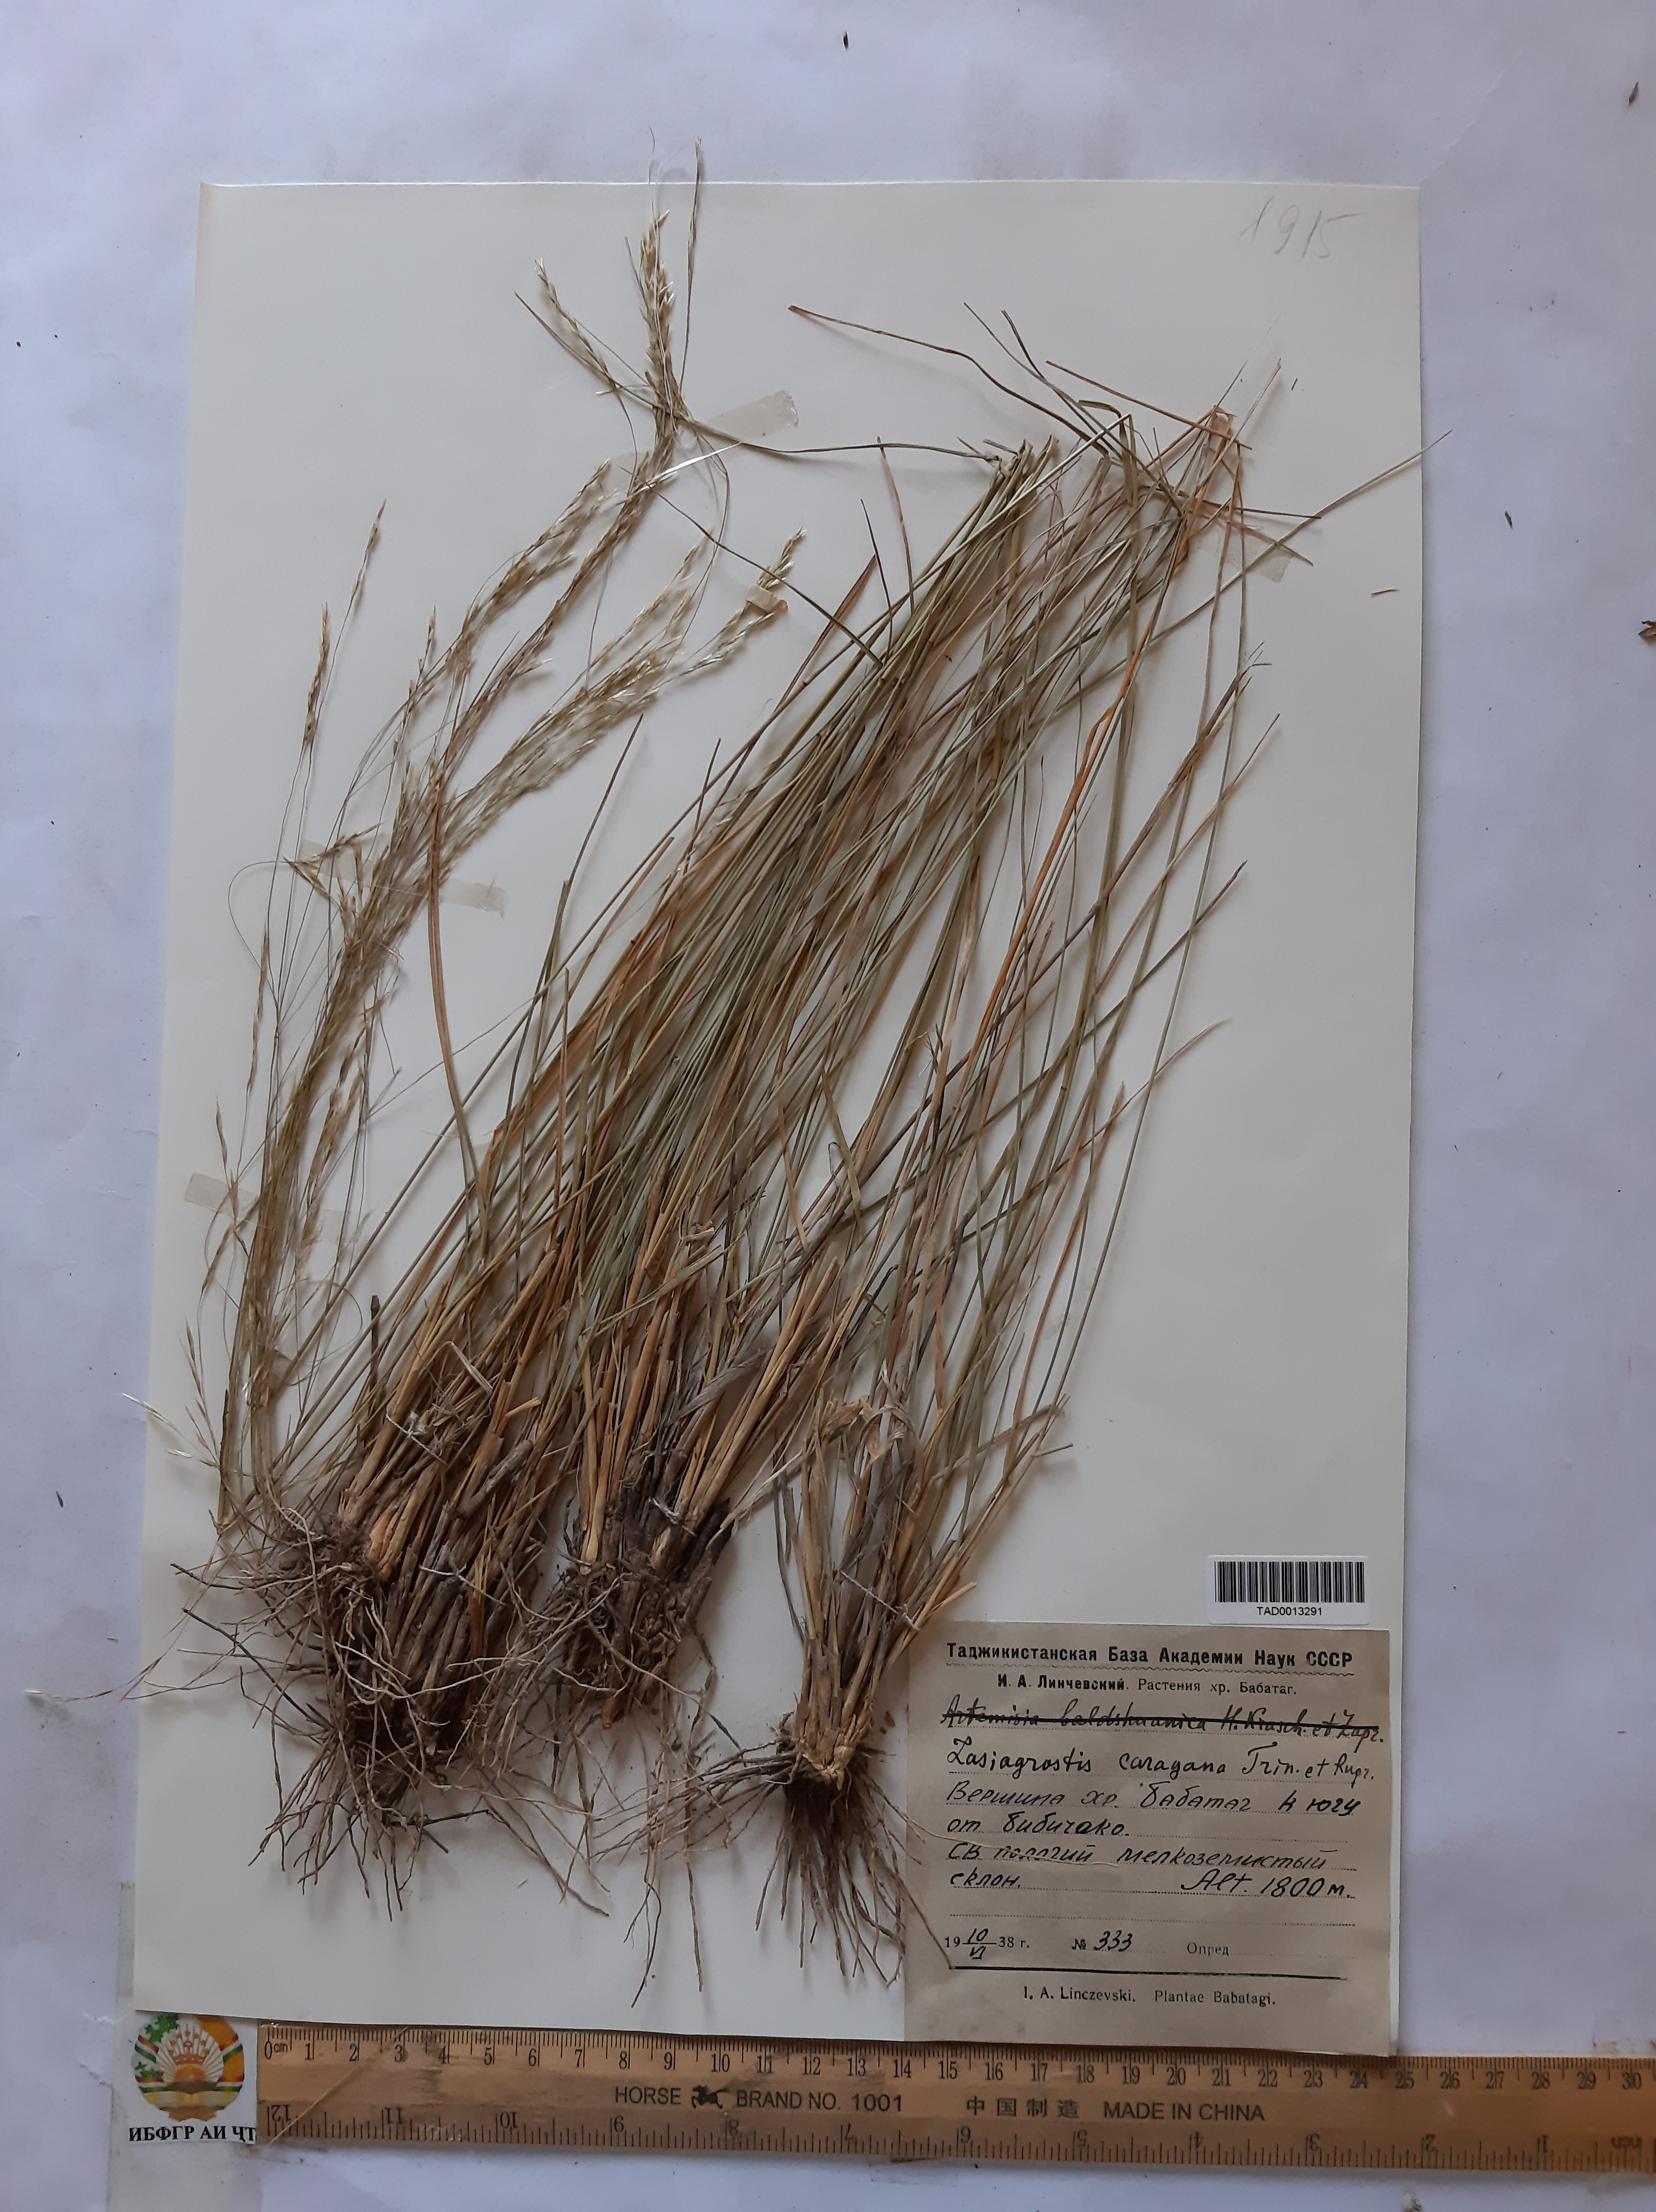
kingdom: Plantae
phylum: Tracheophyta
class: Liliopsida
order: Poales
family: Poaceae
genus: Stipa
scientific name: Stipa conferta
